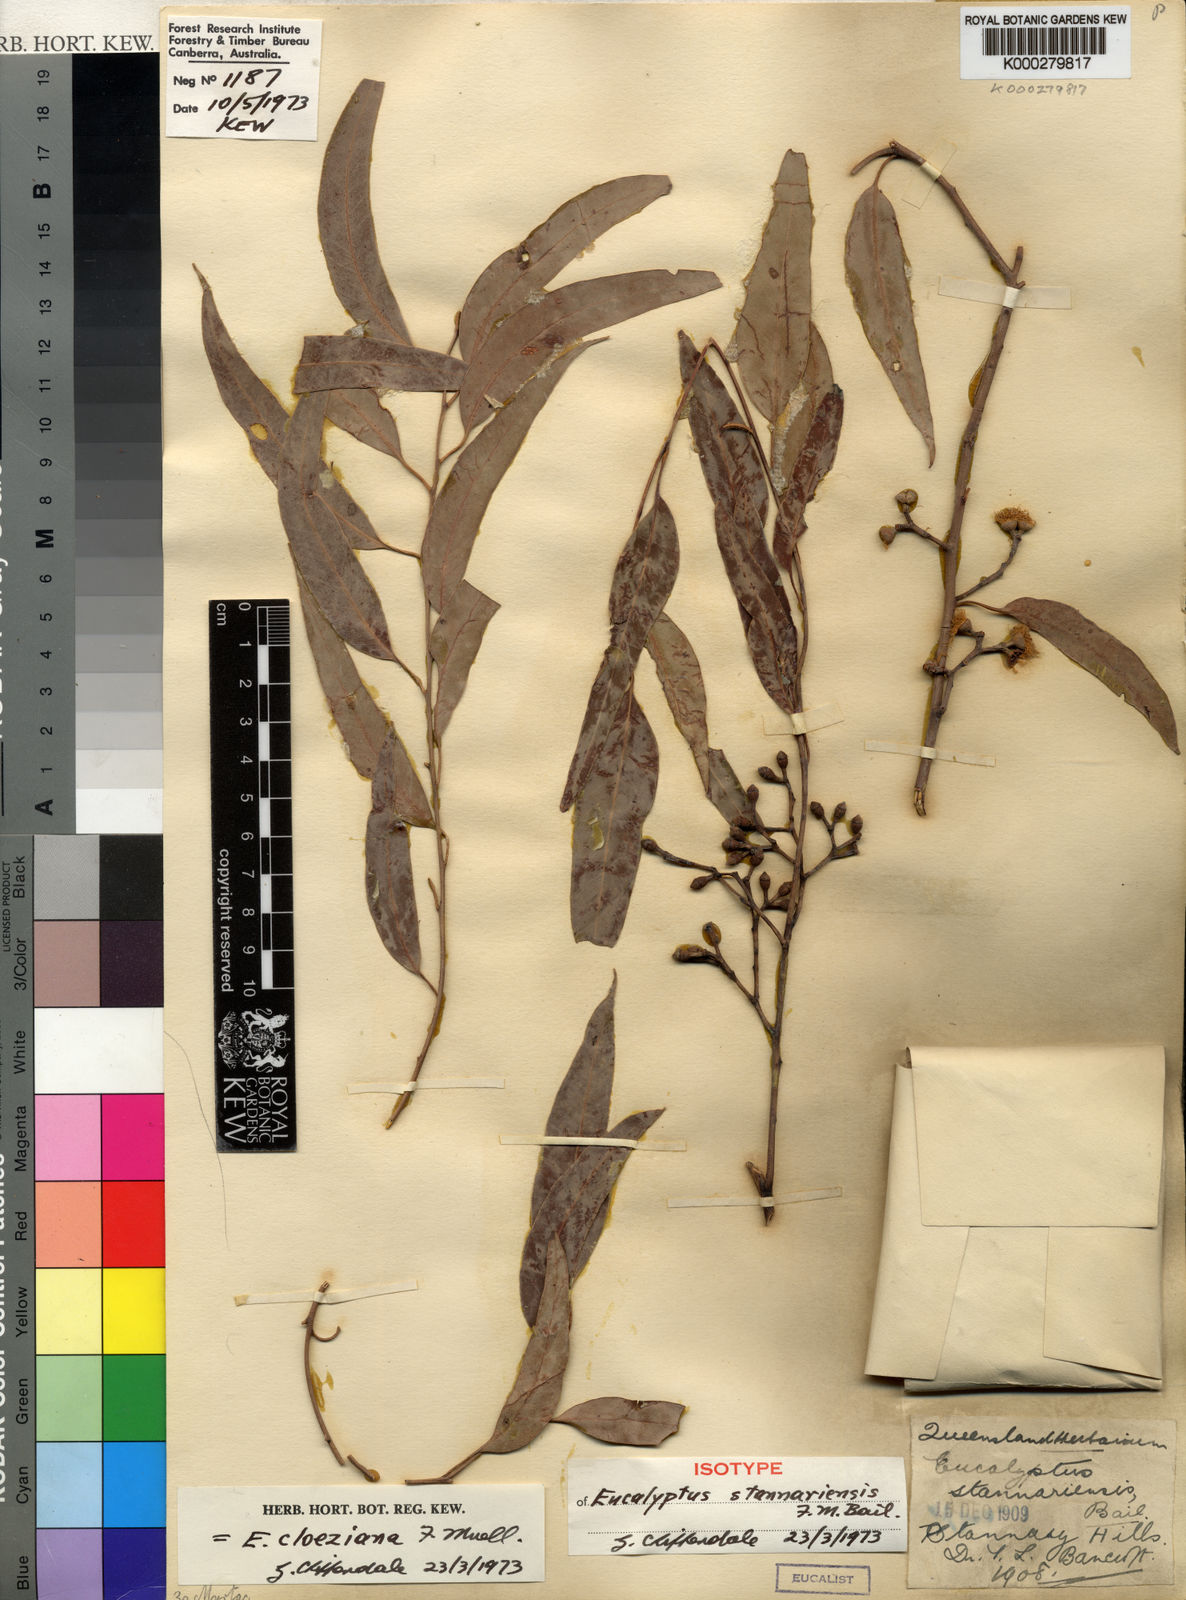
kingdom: Plantae
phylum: Tracheophyta
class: Magnoliopsida
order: Myrtales
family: Myrtaceae
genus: Eucalyptus
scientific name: Eucalyptus cloeziana
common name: Gympie messmate
